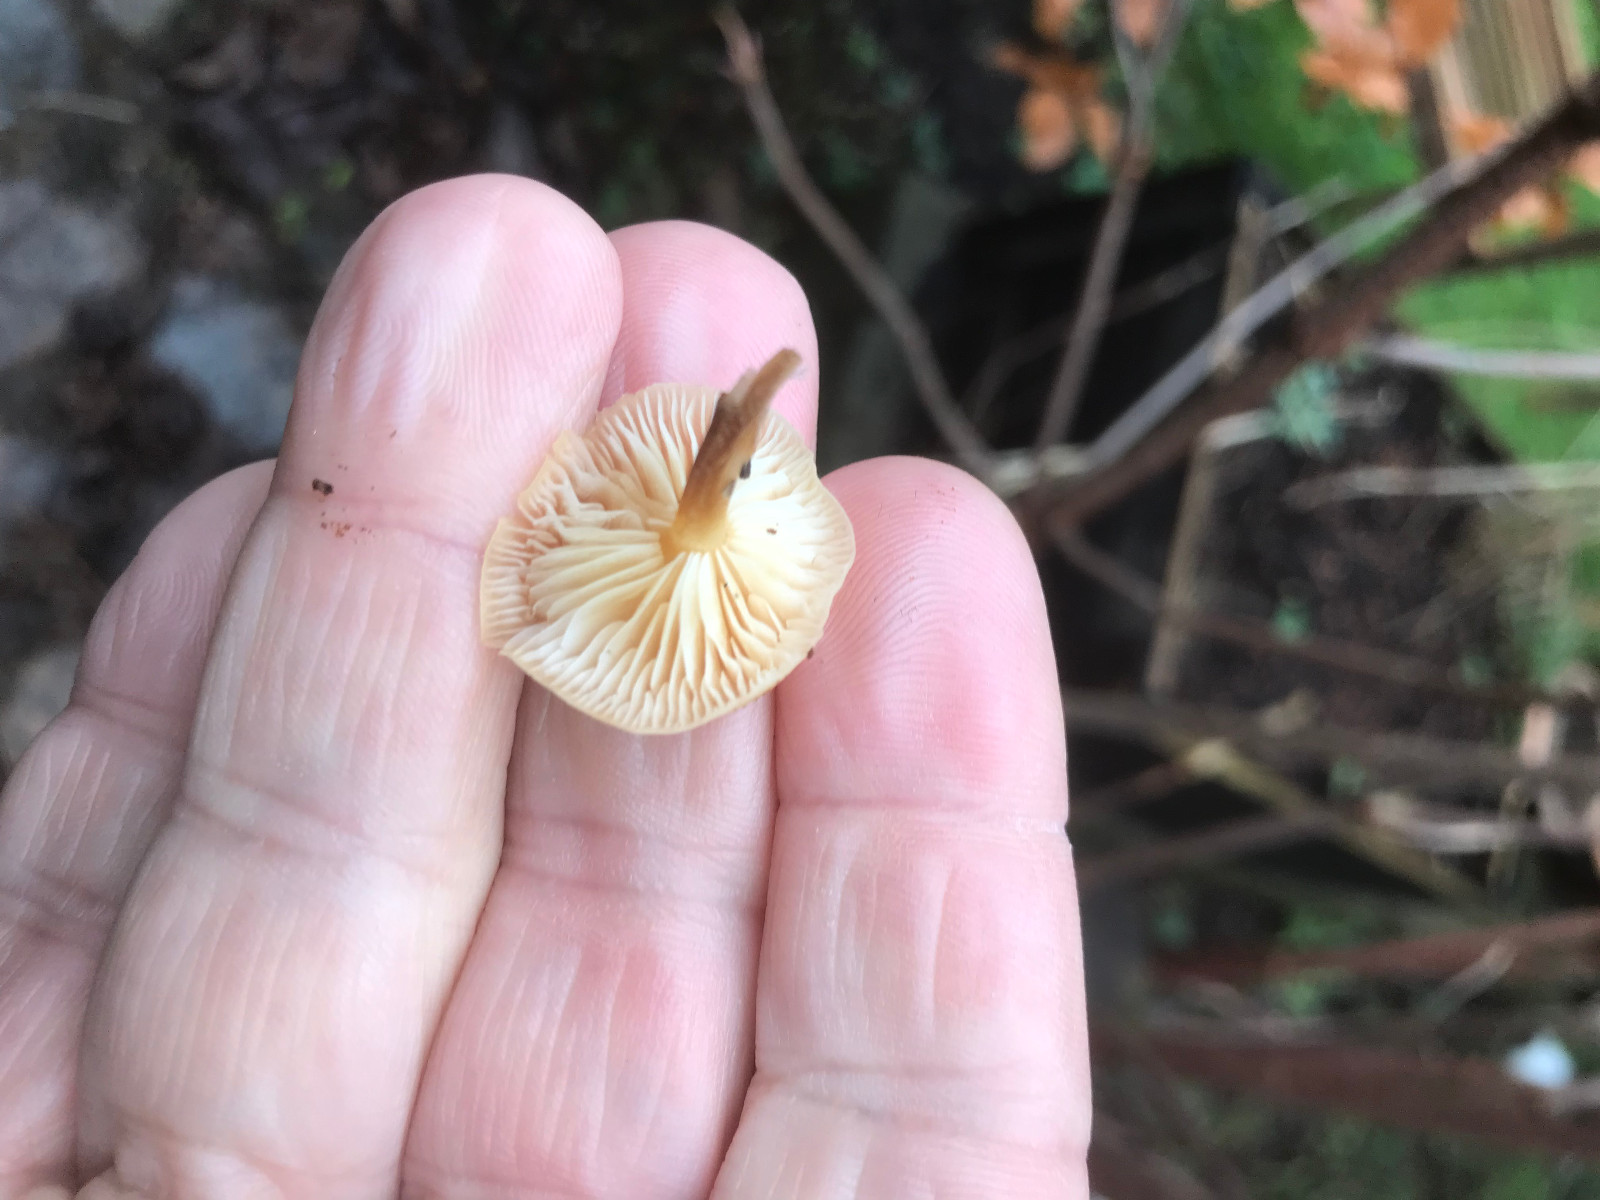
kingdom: Fungi
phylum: Basidiomycota
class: Agaricomycetes
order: Agaricales
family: Physalacriaceae
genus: Flammulina
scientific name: Flammulina velutipes
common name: gul fløjlsfod
